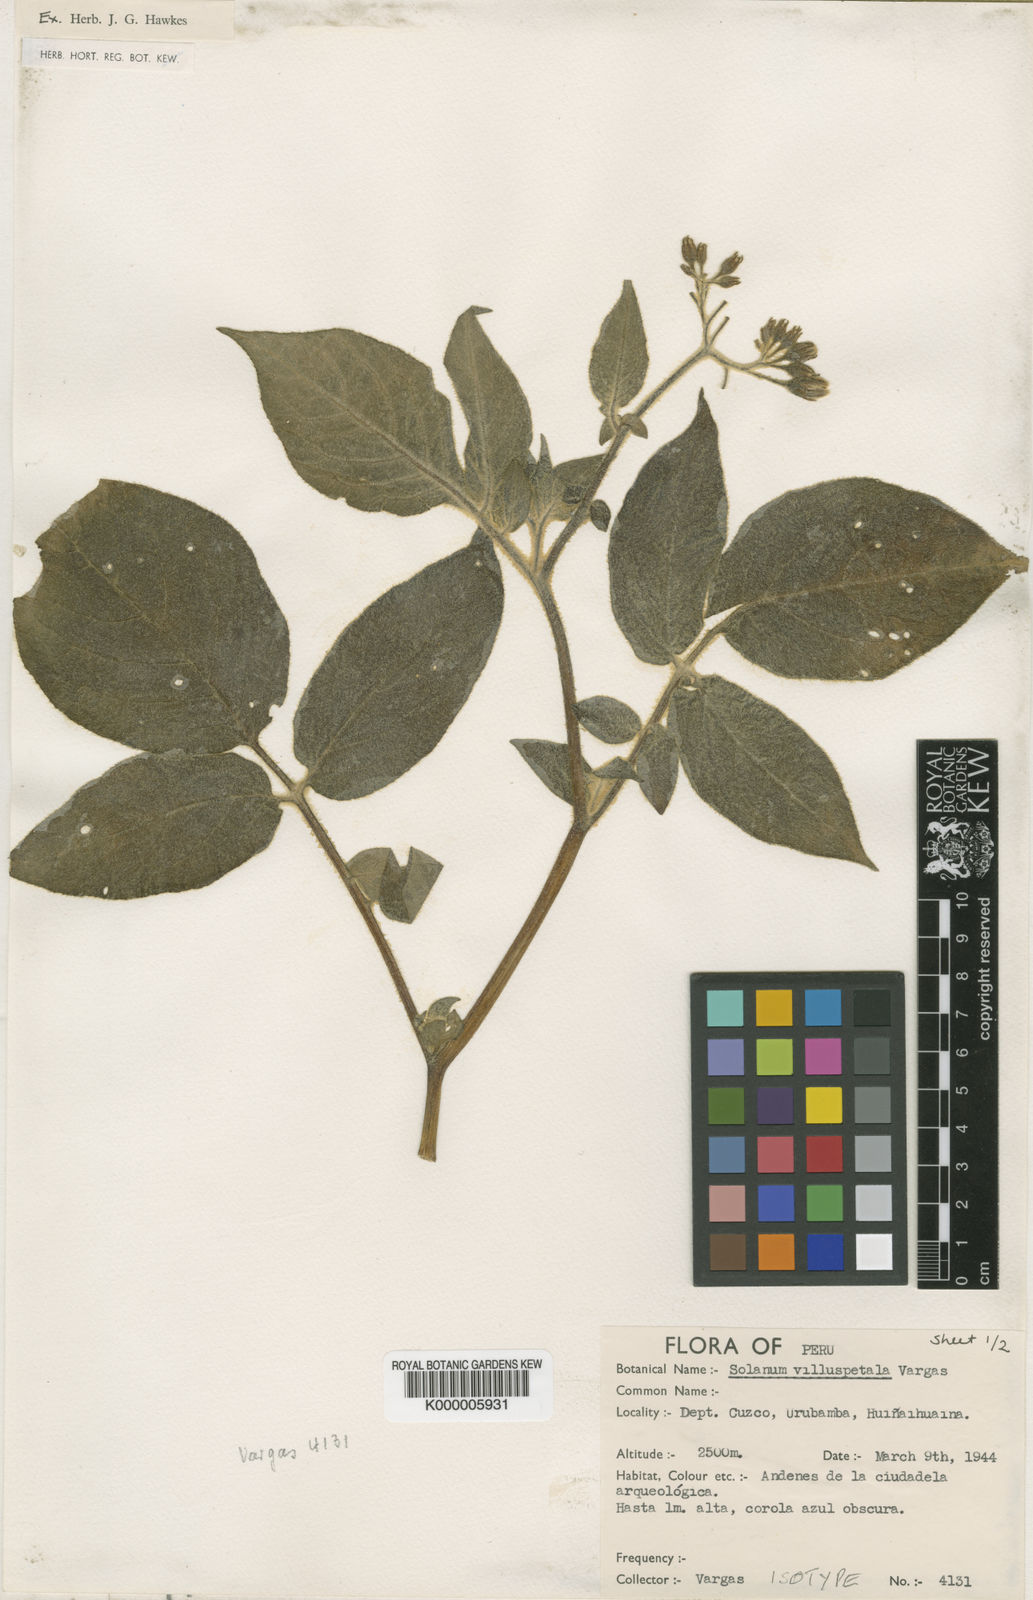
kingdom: Plantae
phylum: Tracheophyta
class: Magnoliopsida
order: Solanales
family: Solanaceae
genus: Solanum
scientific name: Solanum violaceimarmoratum
